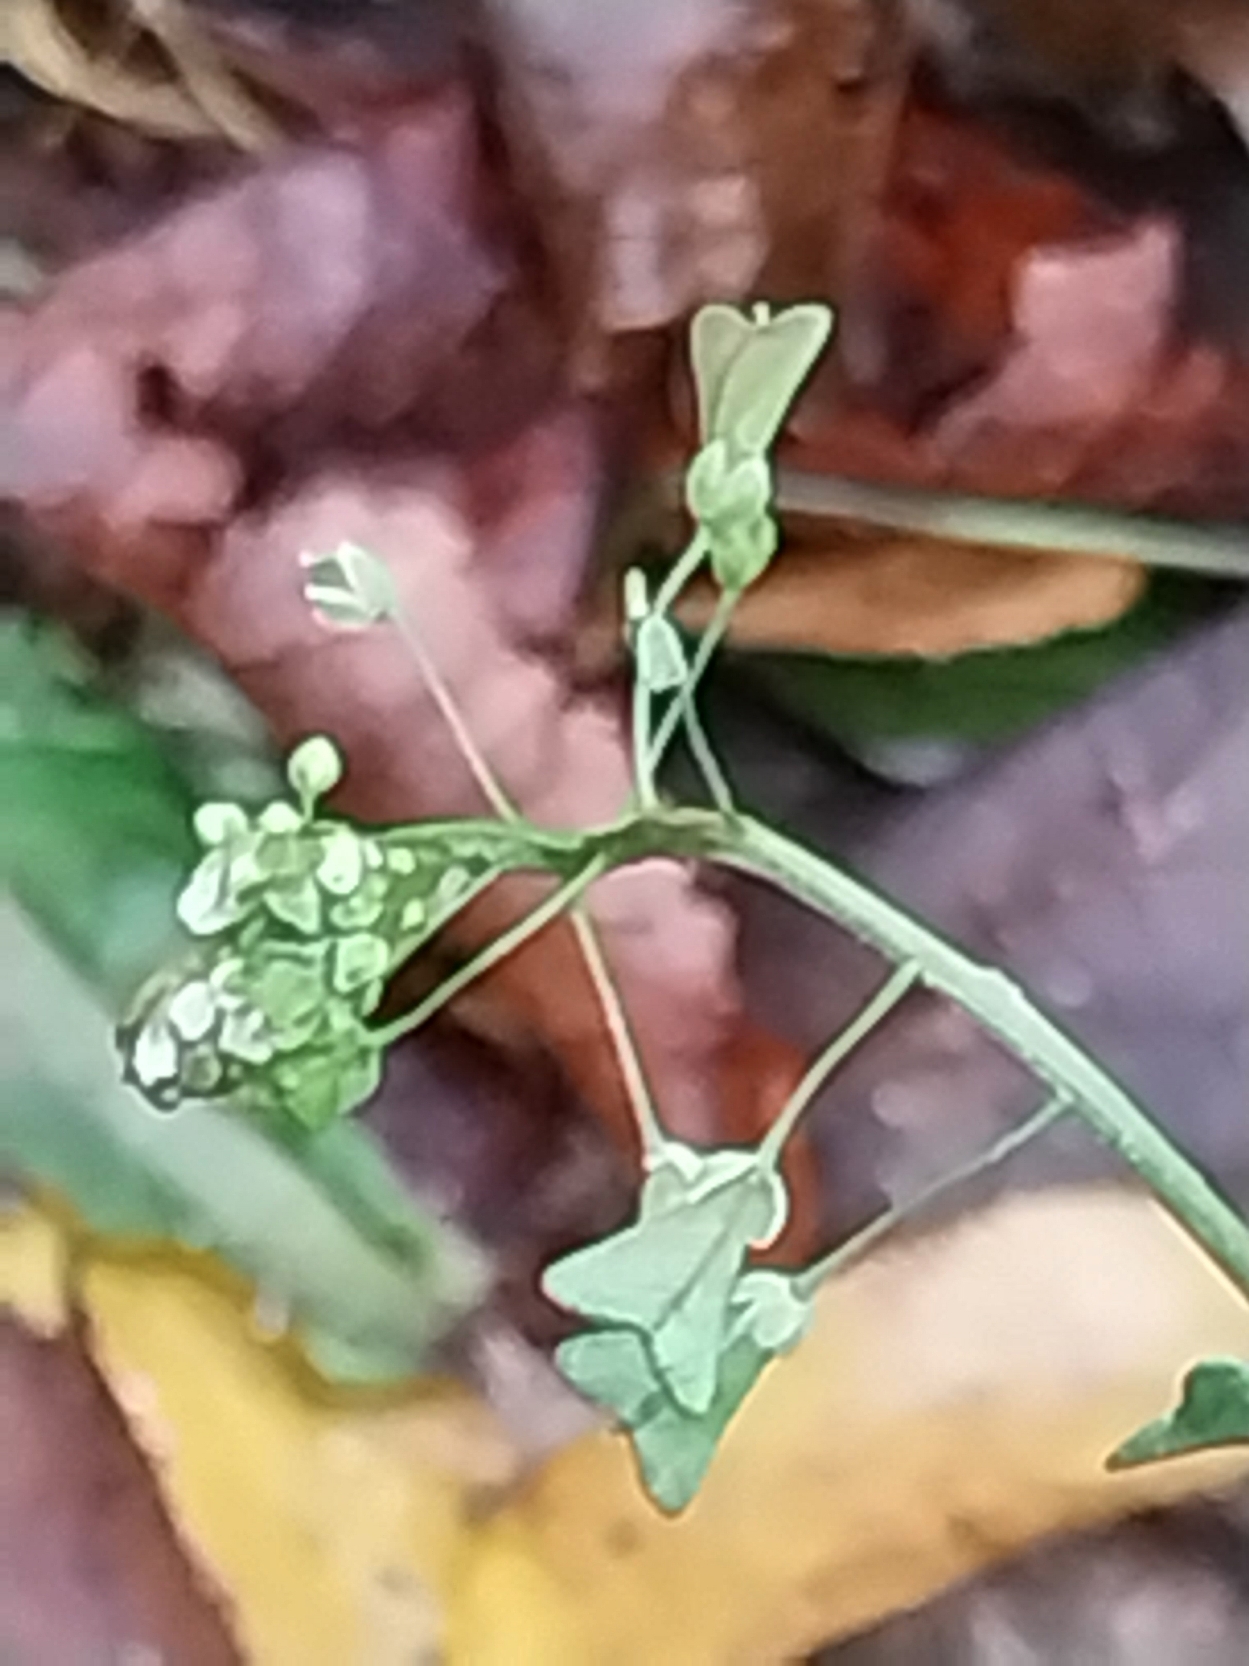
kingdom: Plantae
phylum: Tracheophyta
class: Magnoliopsida
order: Brassicales
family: Brassicaceae
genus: Capsella
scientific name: Capsella bursa-pastoris
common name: Hyrdetaske
